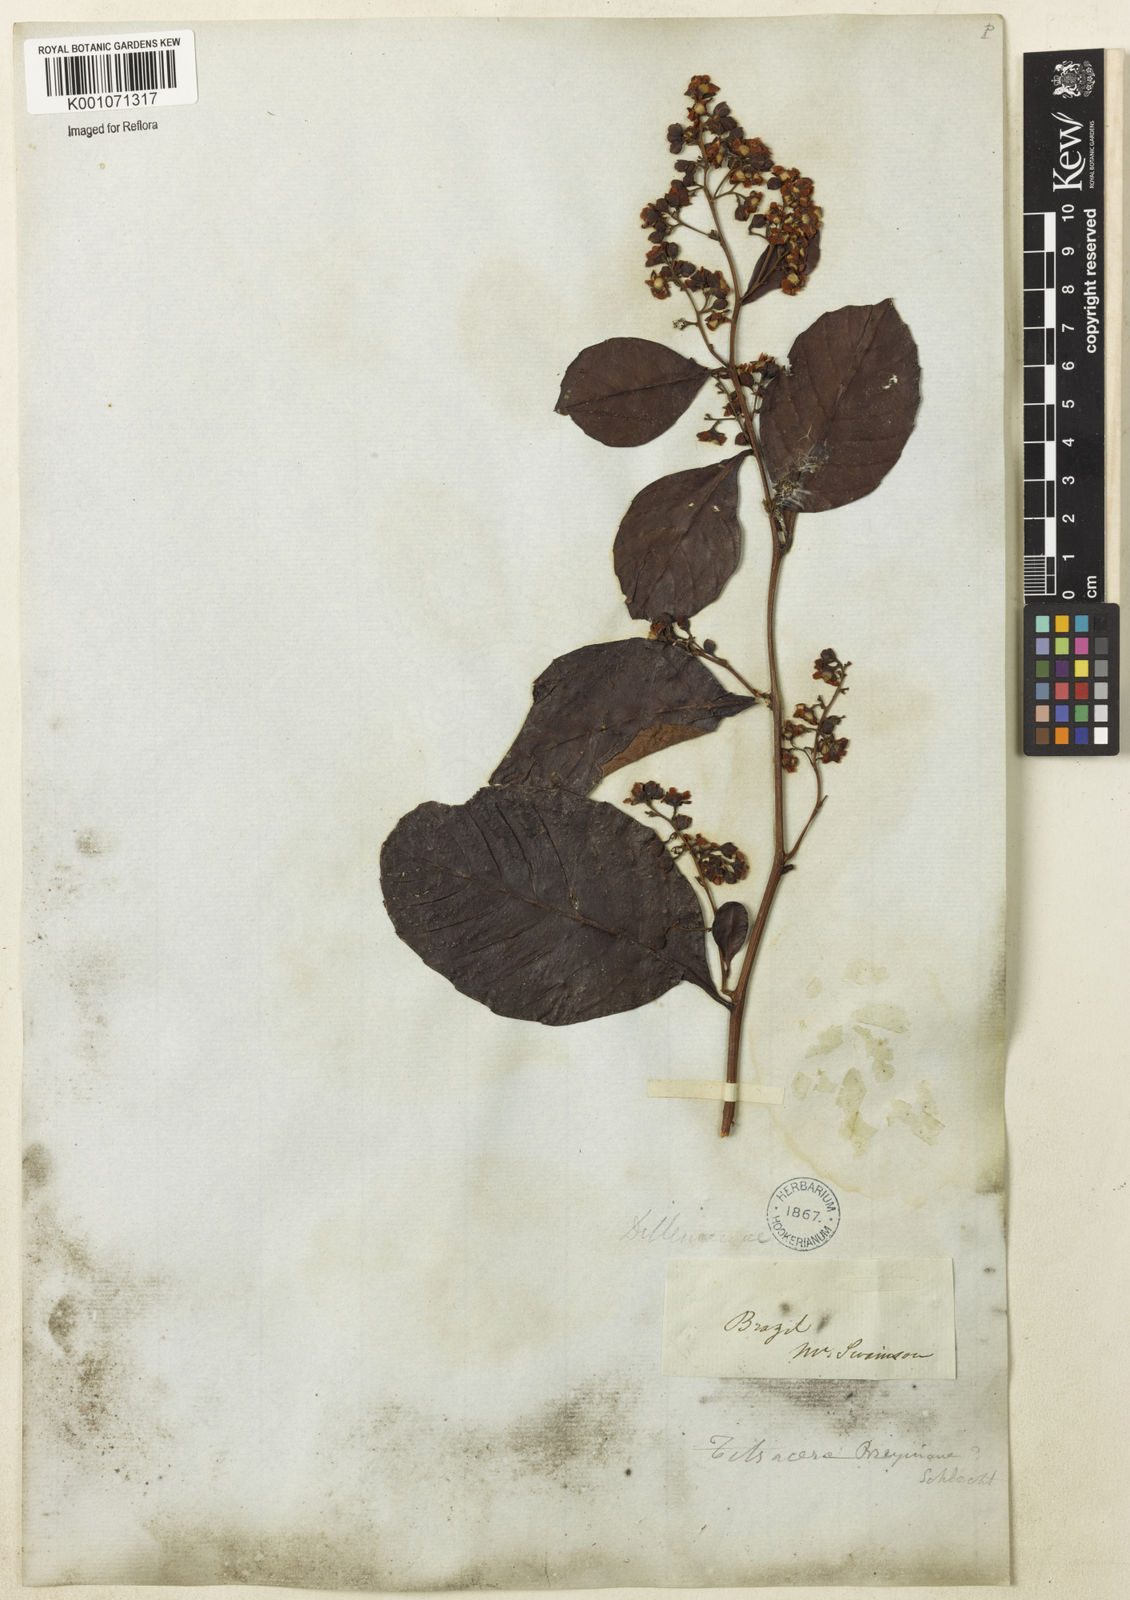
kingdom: Plantae
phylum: Tracheophyta
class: Magnoliopsida
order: Dilleniales
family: Dilleniaceae
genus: Tetracera
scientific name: Tetracera breyniana
